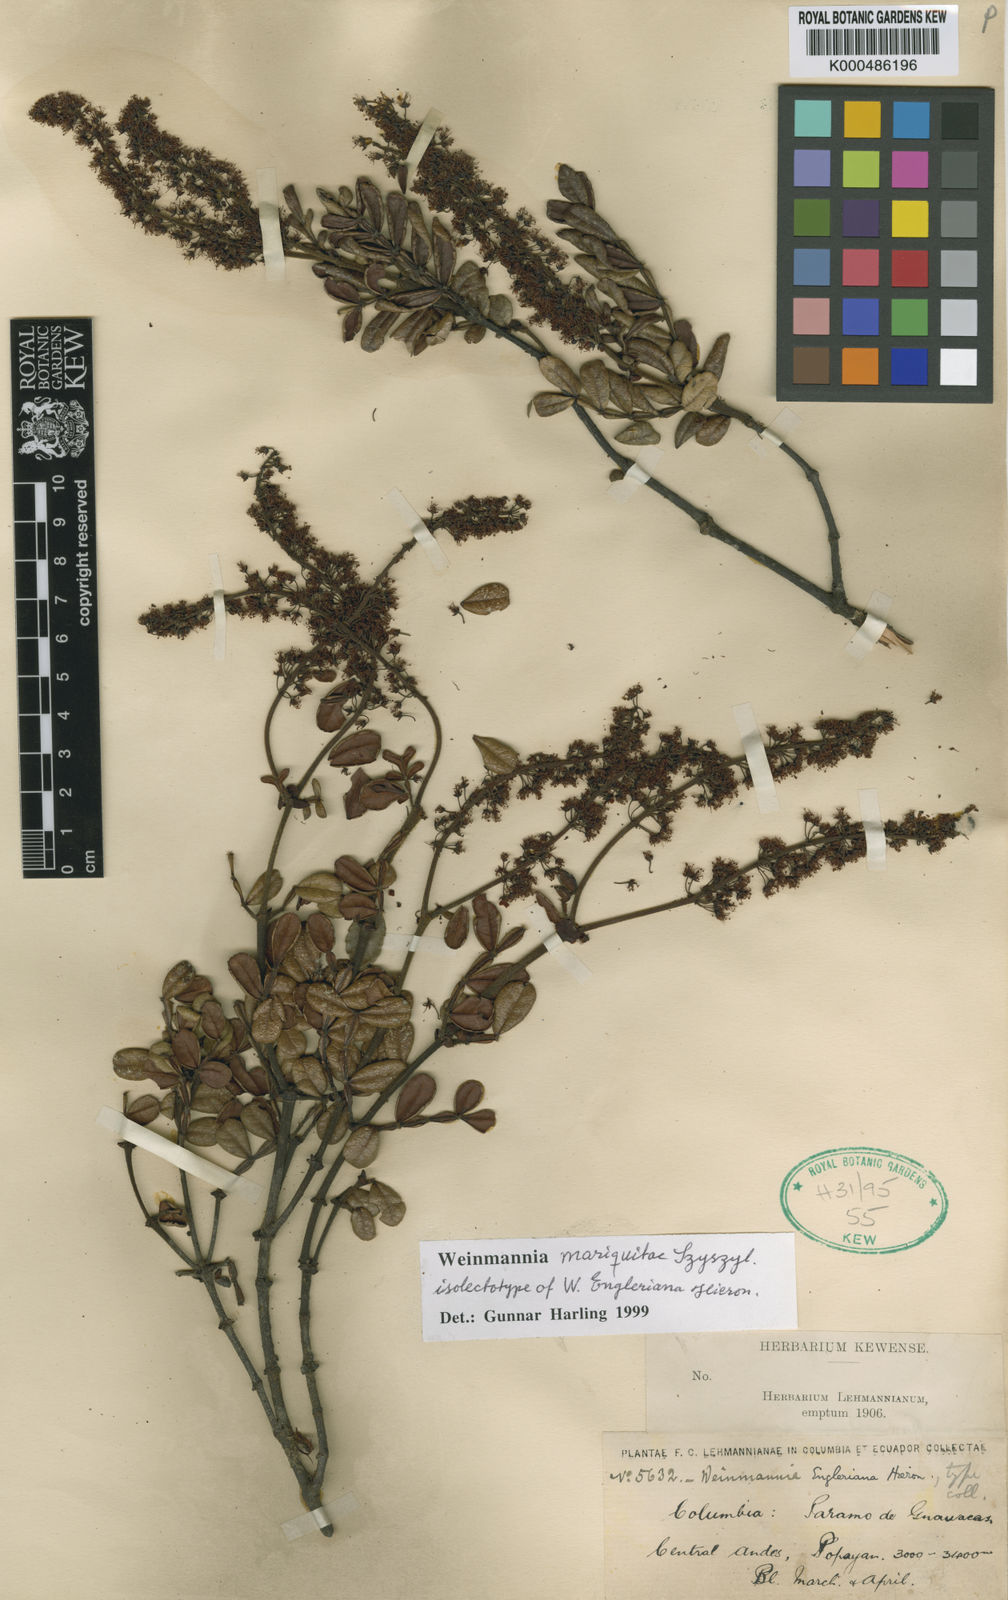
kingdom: Plantae
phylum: Tracheophyta
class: Magnoliopsida
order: Oxalidales
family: Cunoniaceae
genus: Weinmannia
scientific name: Weinmannia mariquitae
